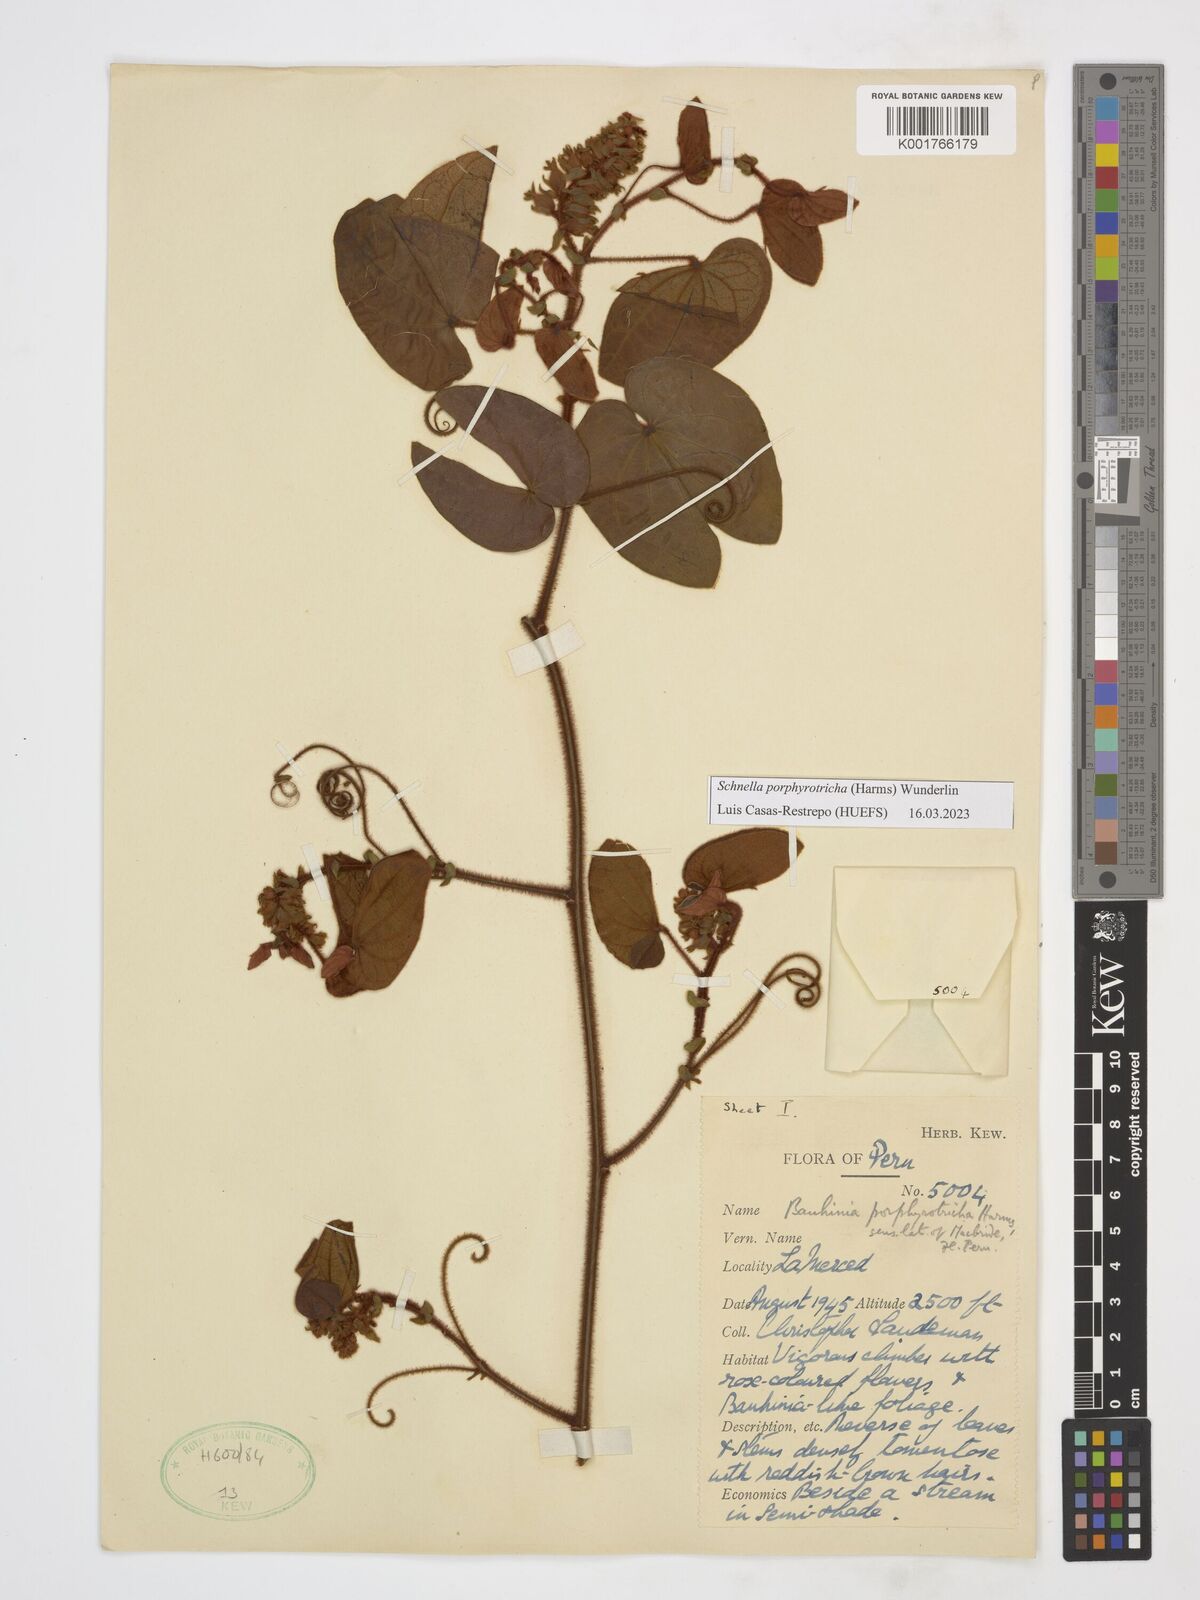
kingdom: Plantae
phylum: Tracheophyta
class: Magnoliopsida
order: Fabales
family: Fabaceae
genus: Schnella
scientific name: Schnella porphyrotricha
